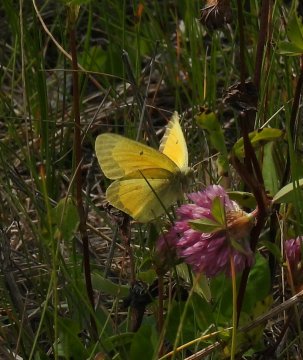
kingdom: Animalia
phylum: Arthropoda
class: Insecta
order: Lepidoptera
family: Pieridae
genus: Colias
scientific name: Colias christina
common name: Christina Sulphur
